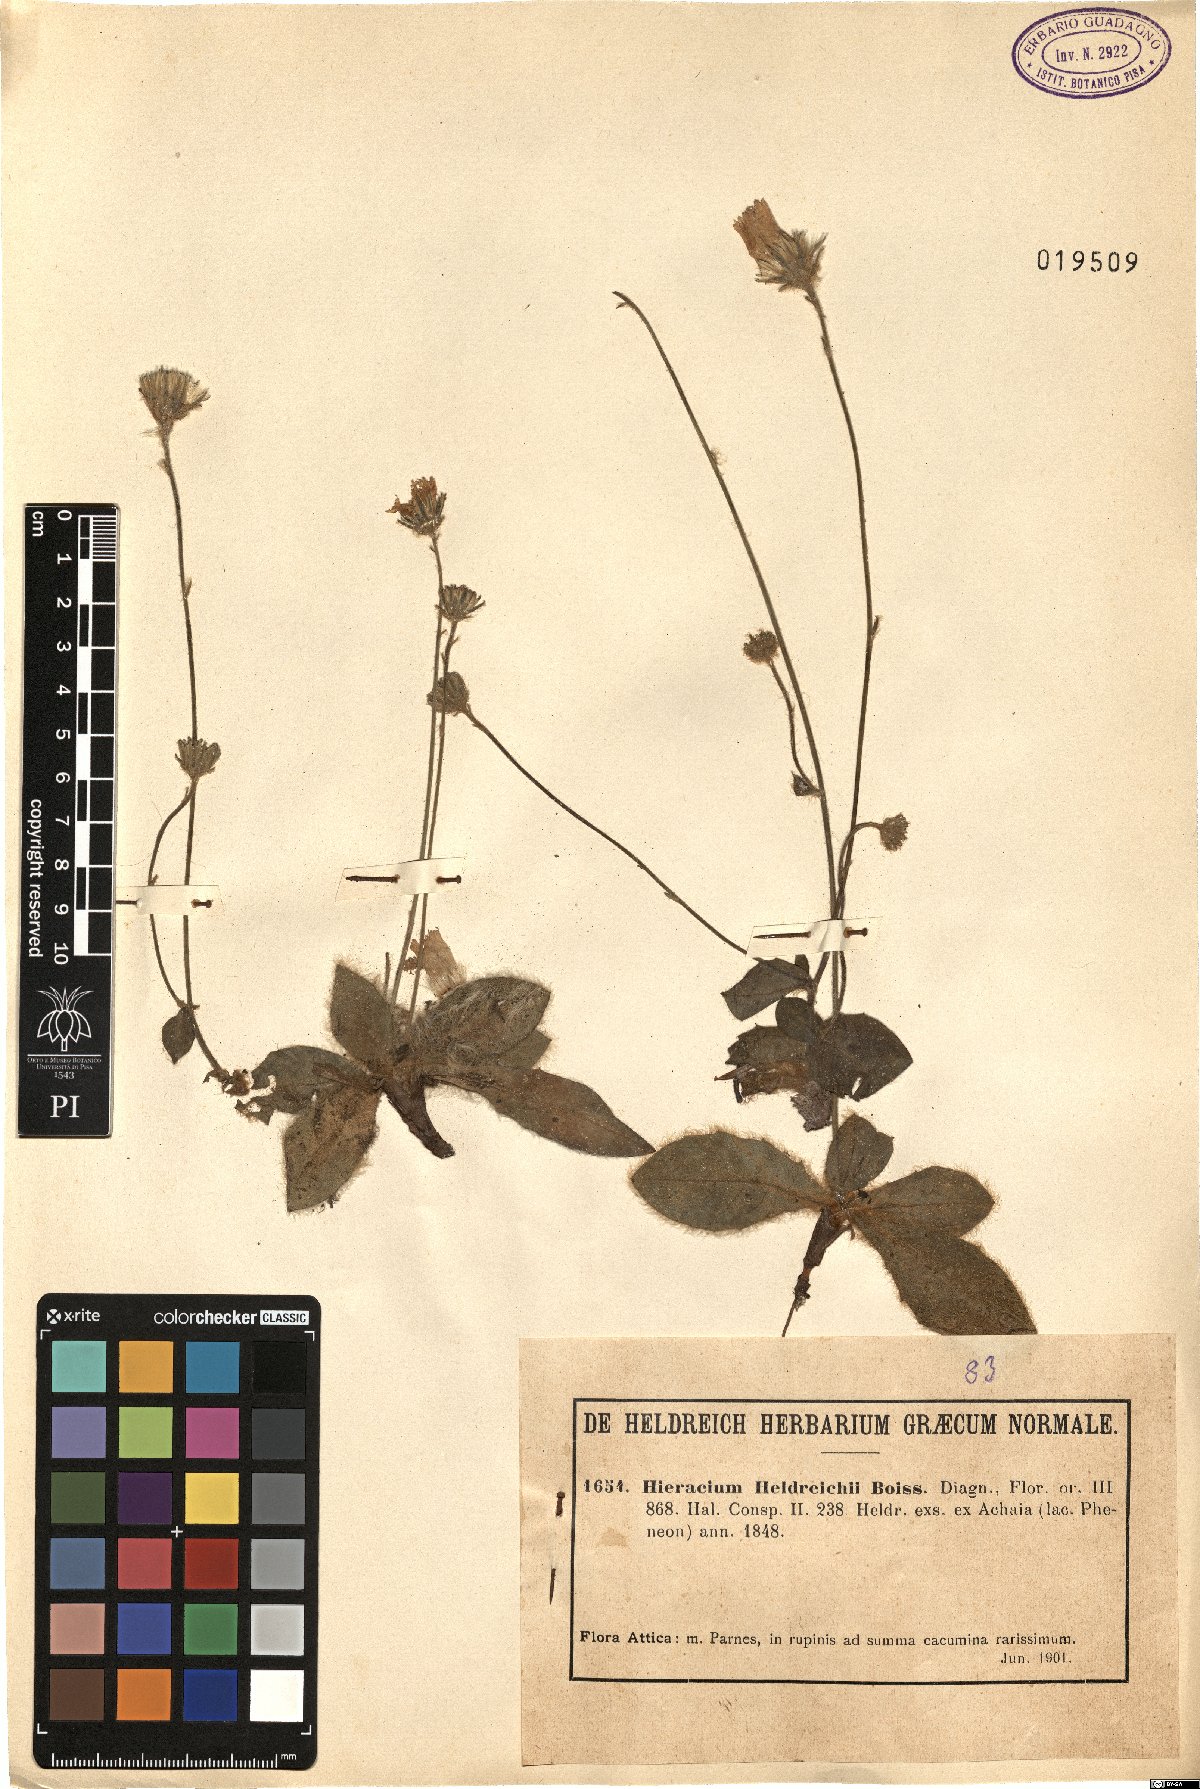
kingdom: Plantae
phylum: Tracheophyta
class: Magnoliopsida
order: Asterales
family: Asteraceae
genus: Hieracium
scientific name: Hieracium heldreichii
